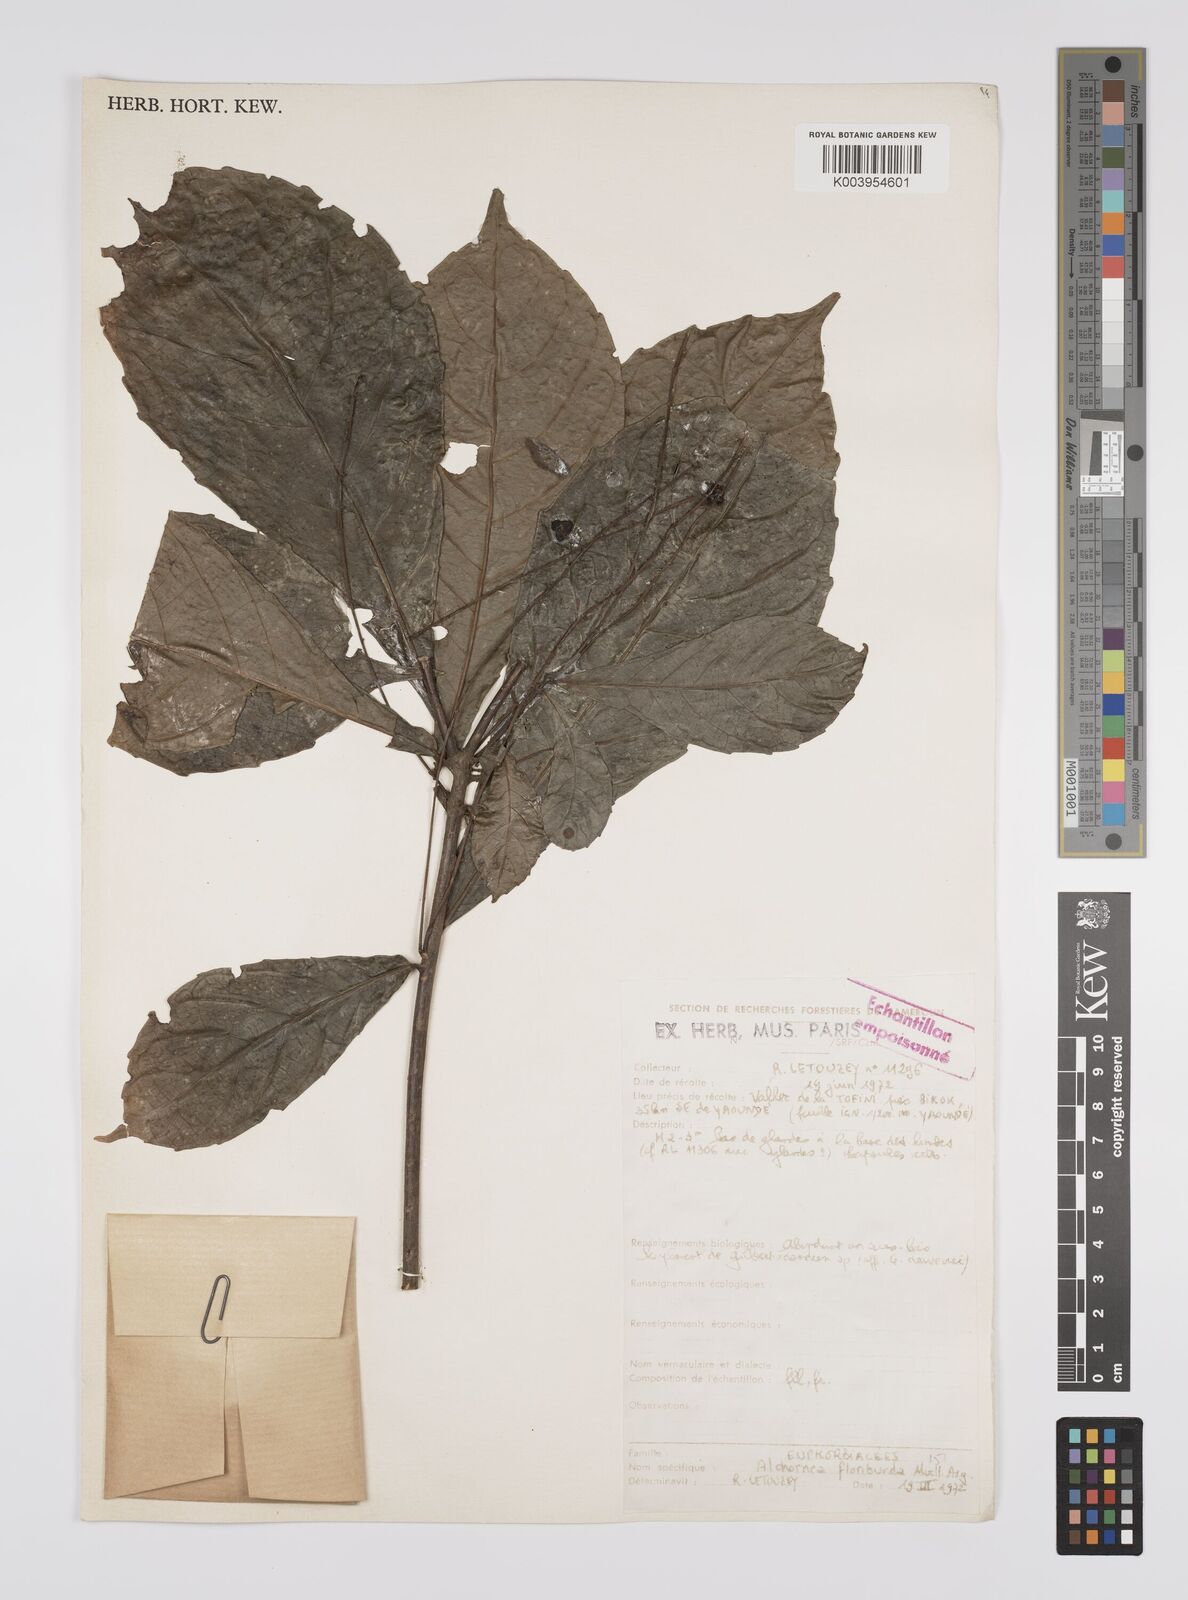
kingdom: Plantae
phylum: Tracheophyta
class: Magnoliopsida
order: Malpighiales
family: Euphorbiaceae
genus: Alchornea
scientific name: Alchornea floribunda
